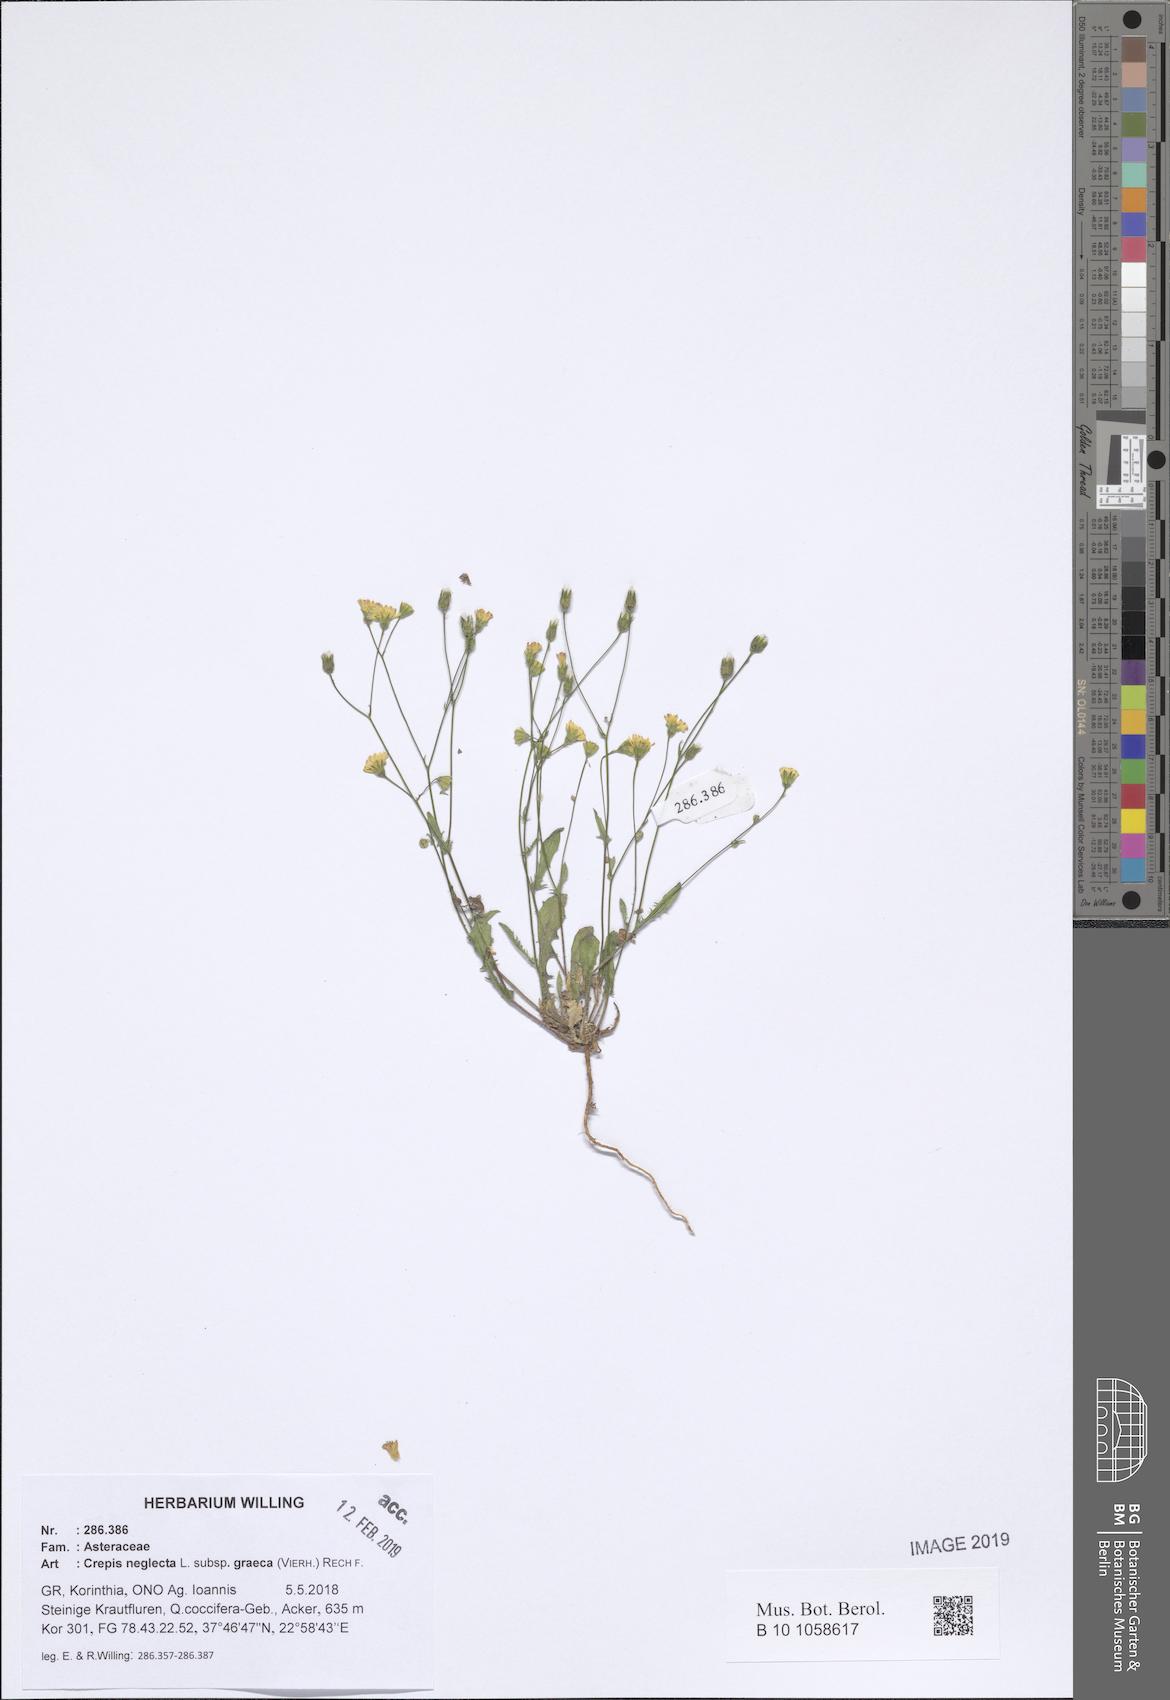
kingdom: Plantae
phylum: Tracheophyta
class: Magnoliopsida
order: Asterales
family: Asteraceae
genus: Crepis
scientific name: Crepis neglecta
